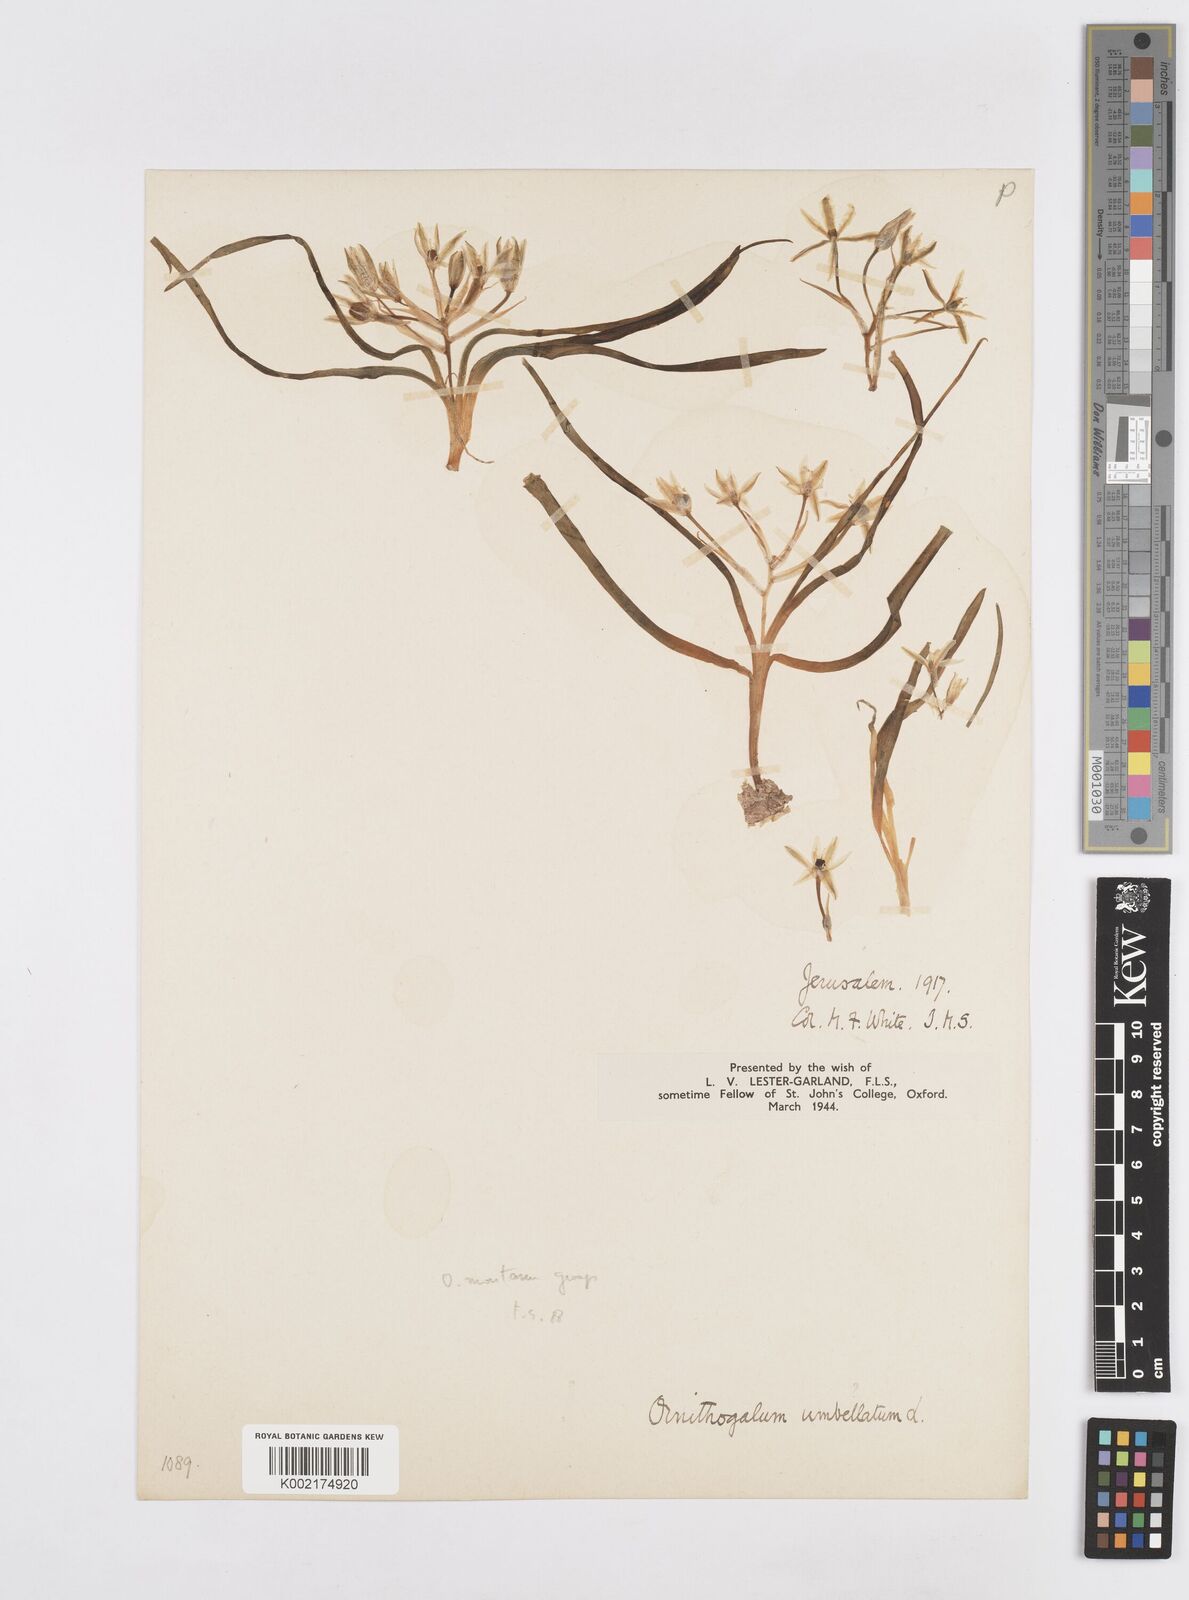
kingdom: Plantae
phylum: Tracheophyta
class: Liliopsida
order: Asparagales
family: Asparagaceae
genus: Ornithogalum
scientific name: Ornithogalum umbellatum
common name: Garden star-of-bethlehem
